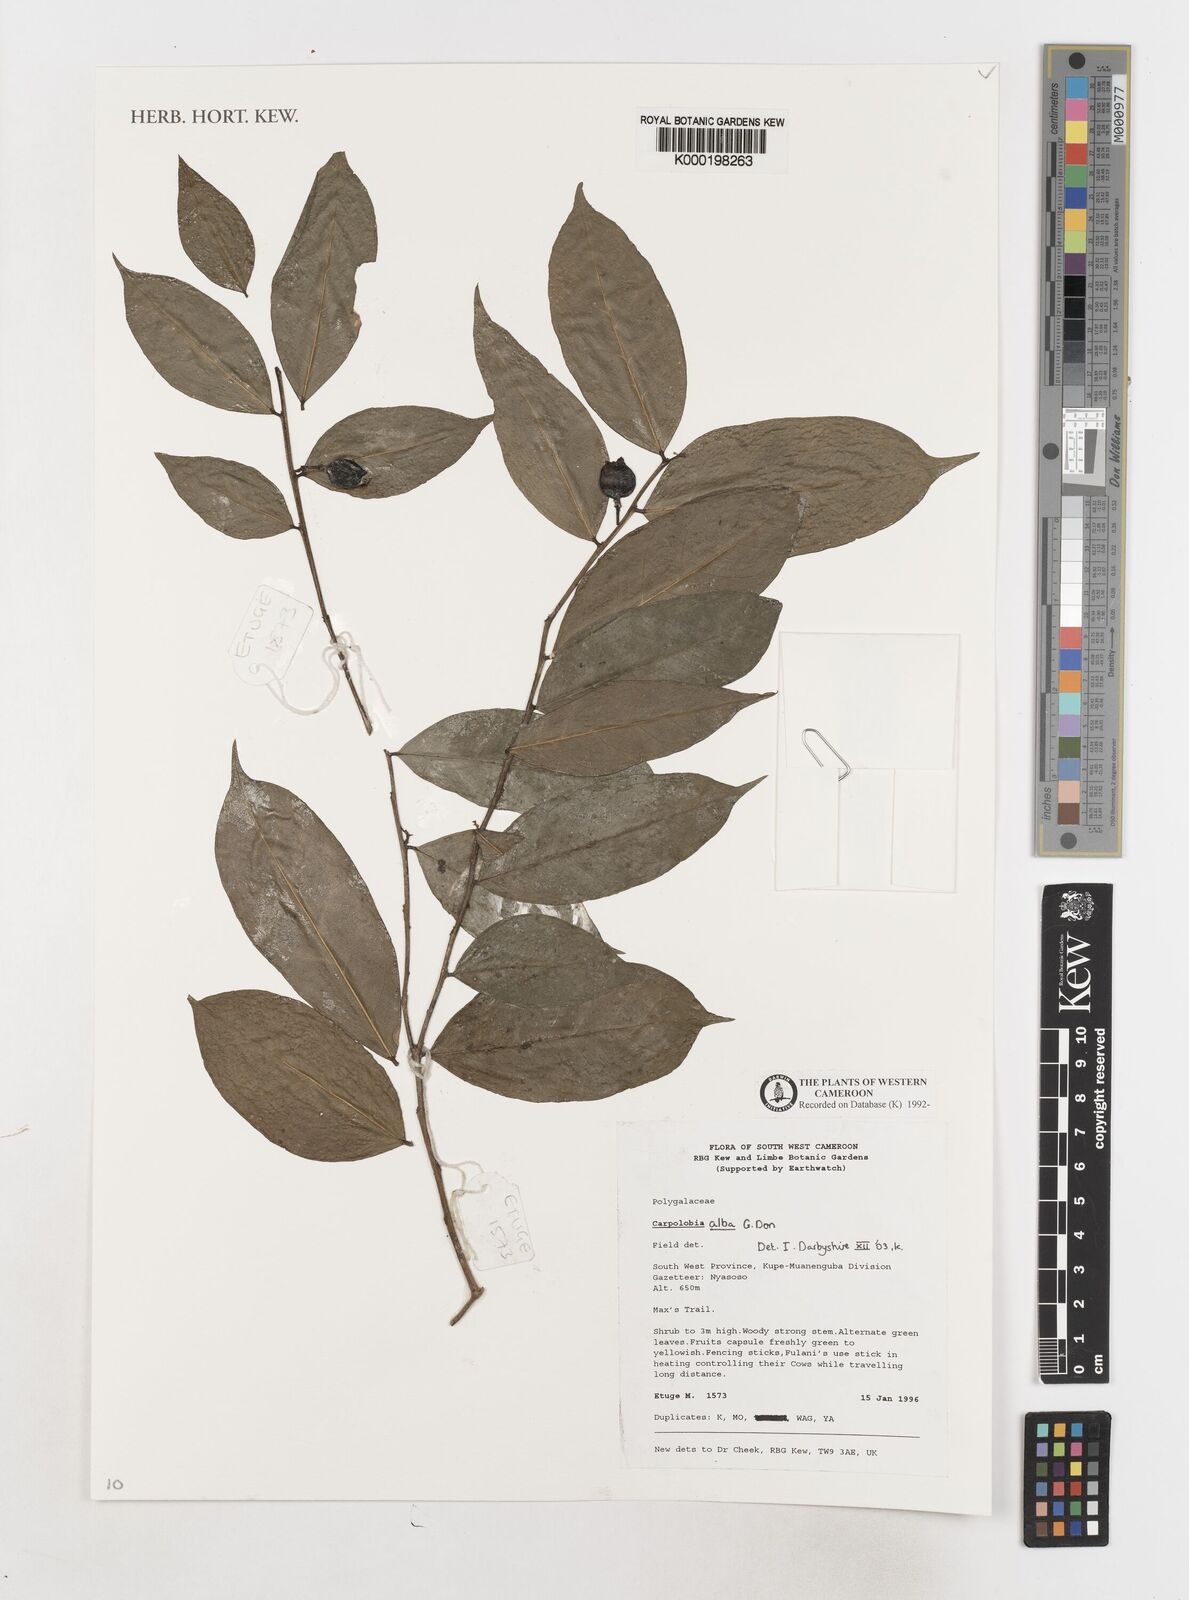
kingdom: Plantae
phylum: Tracheophyta
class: Magnoliopsida
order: Fabales
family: Polygalaceae
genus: Carpolobia
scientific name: Carpolobia alba
